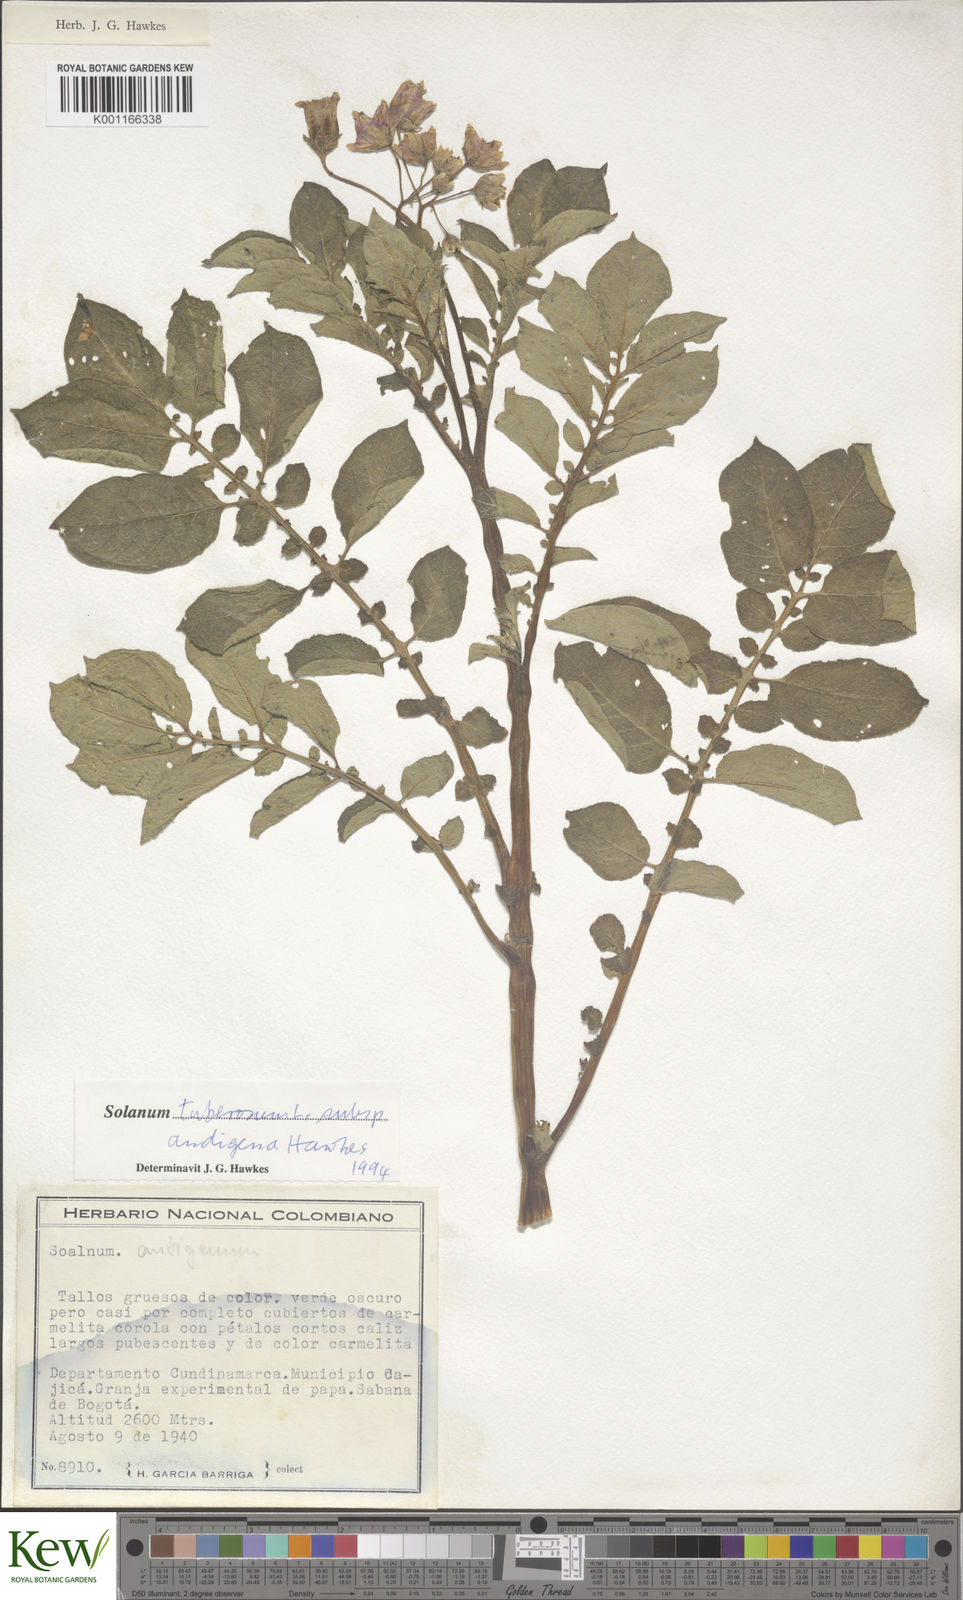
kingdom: Plantae
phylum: Tracheophyta
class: Magnoliopsida
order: Solanales
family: Solanaceae
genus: Solanum
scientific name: Solanum tuberosum
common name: Potato
